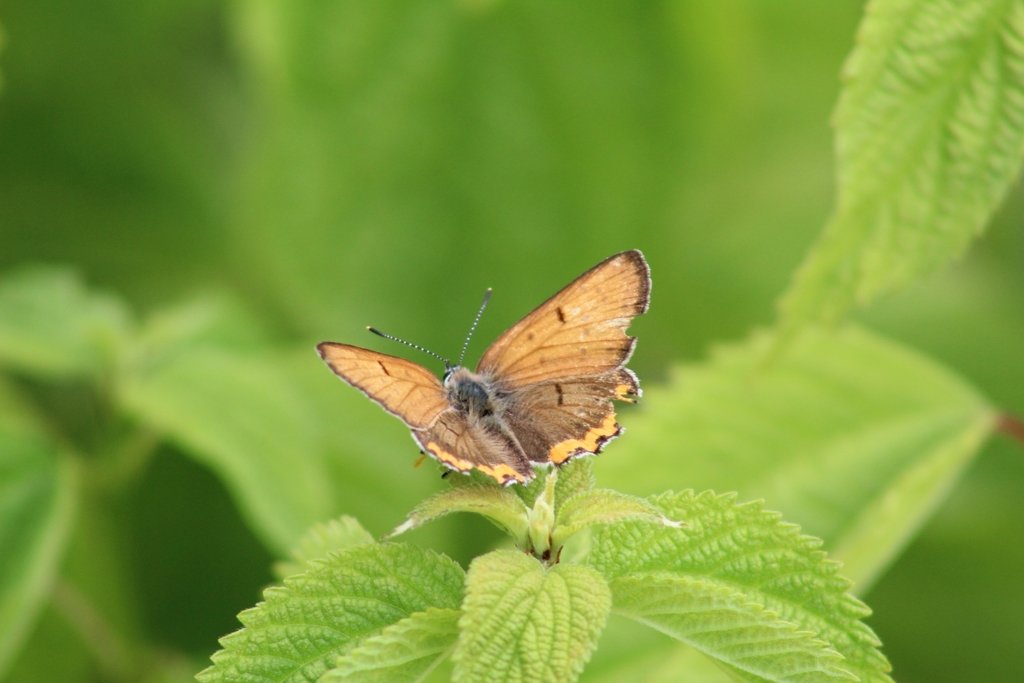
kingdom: Animalia
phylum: Arthropoda
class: Insecta
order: Lepidoptera
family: Sesiidae
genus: Sesia
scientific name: Sesia Lycaena hyllus
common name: Bronze Copper
